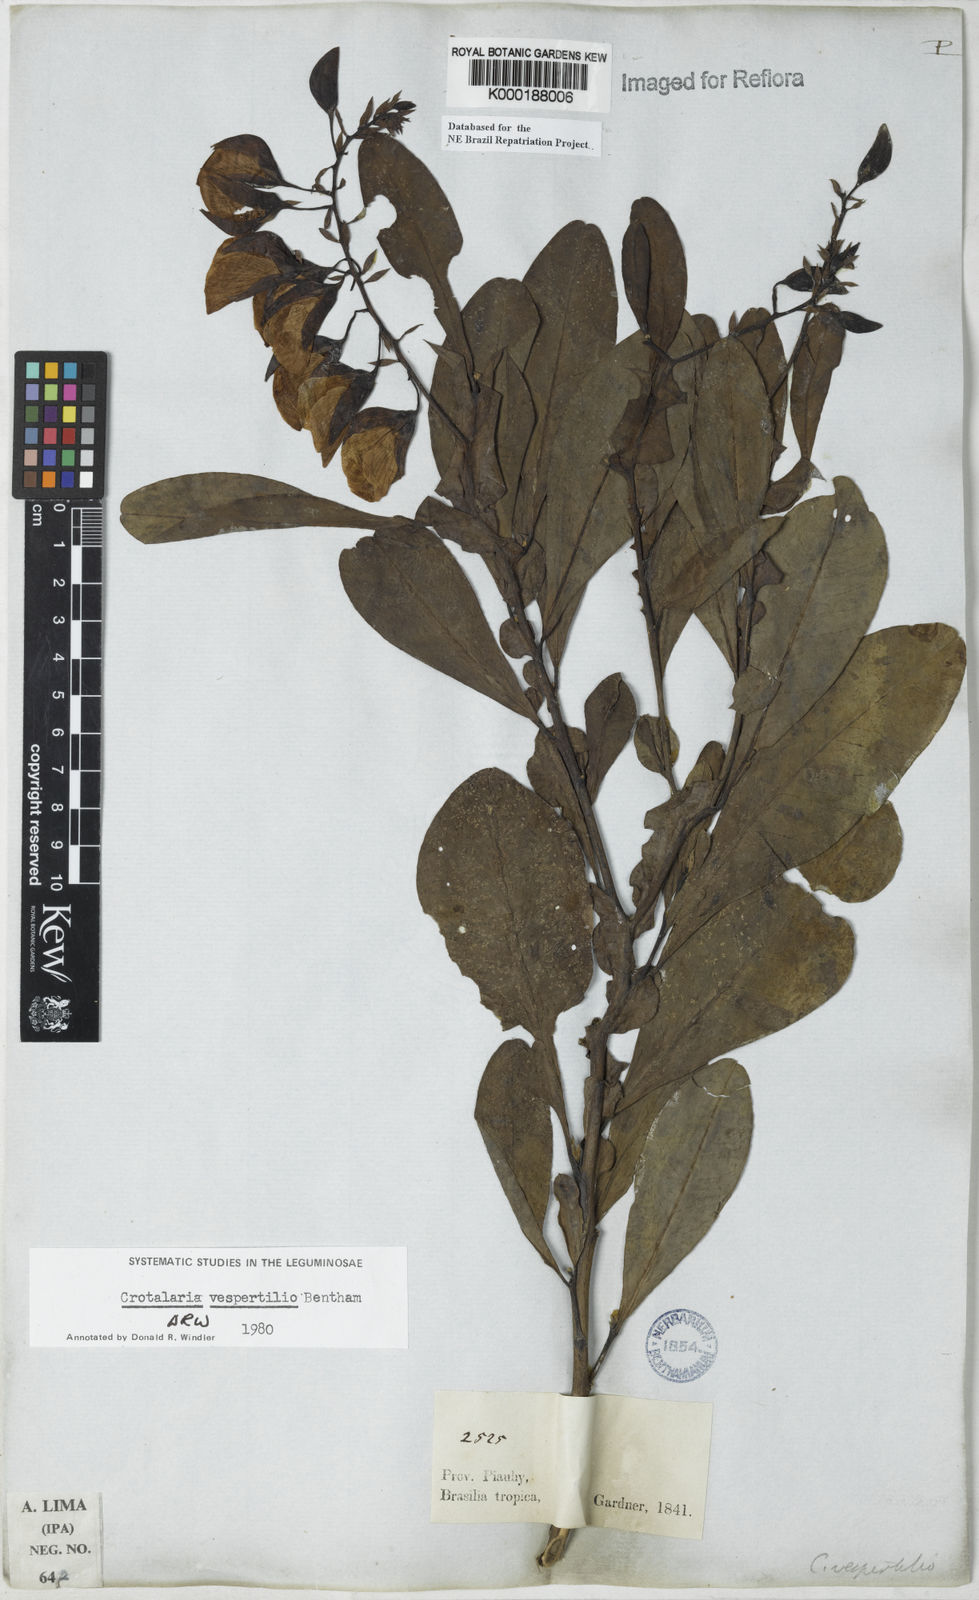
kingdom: Plantae
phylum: Tracheophyta
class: Magnoliopsida
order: Fabales
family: Fabaceae
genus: Crotalaria
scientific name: Crotalaria paulina
